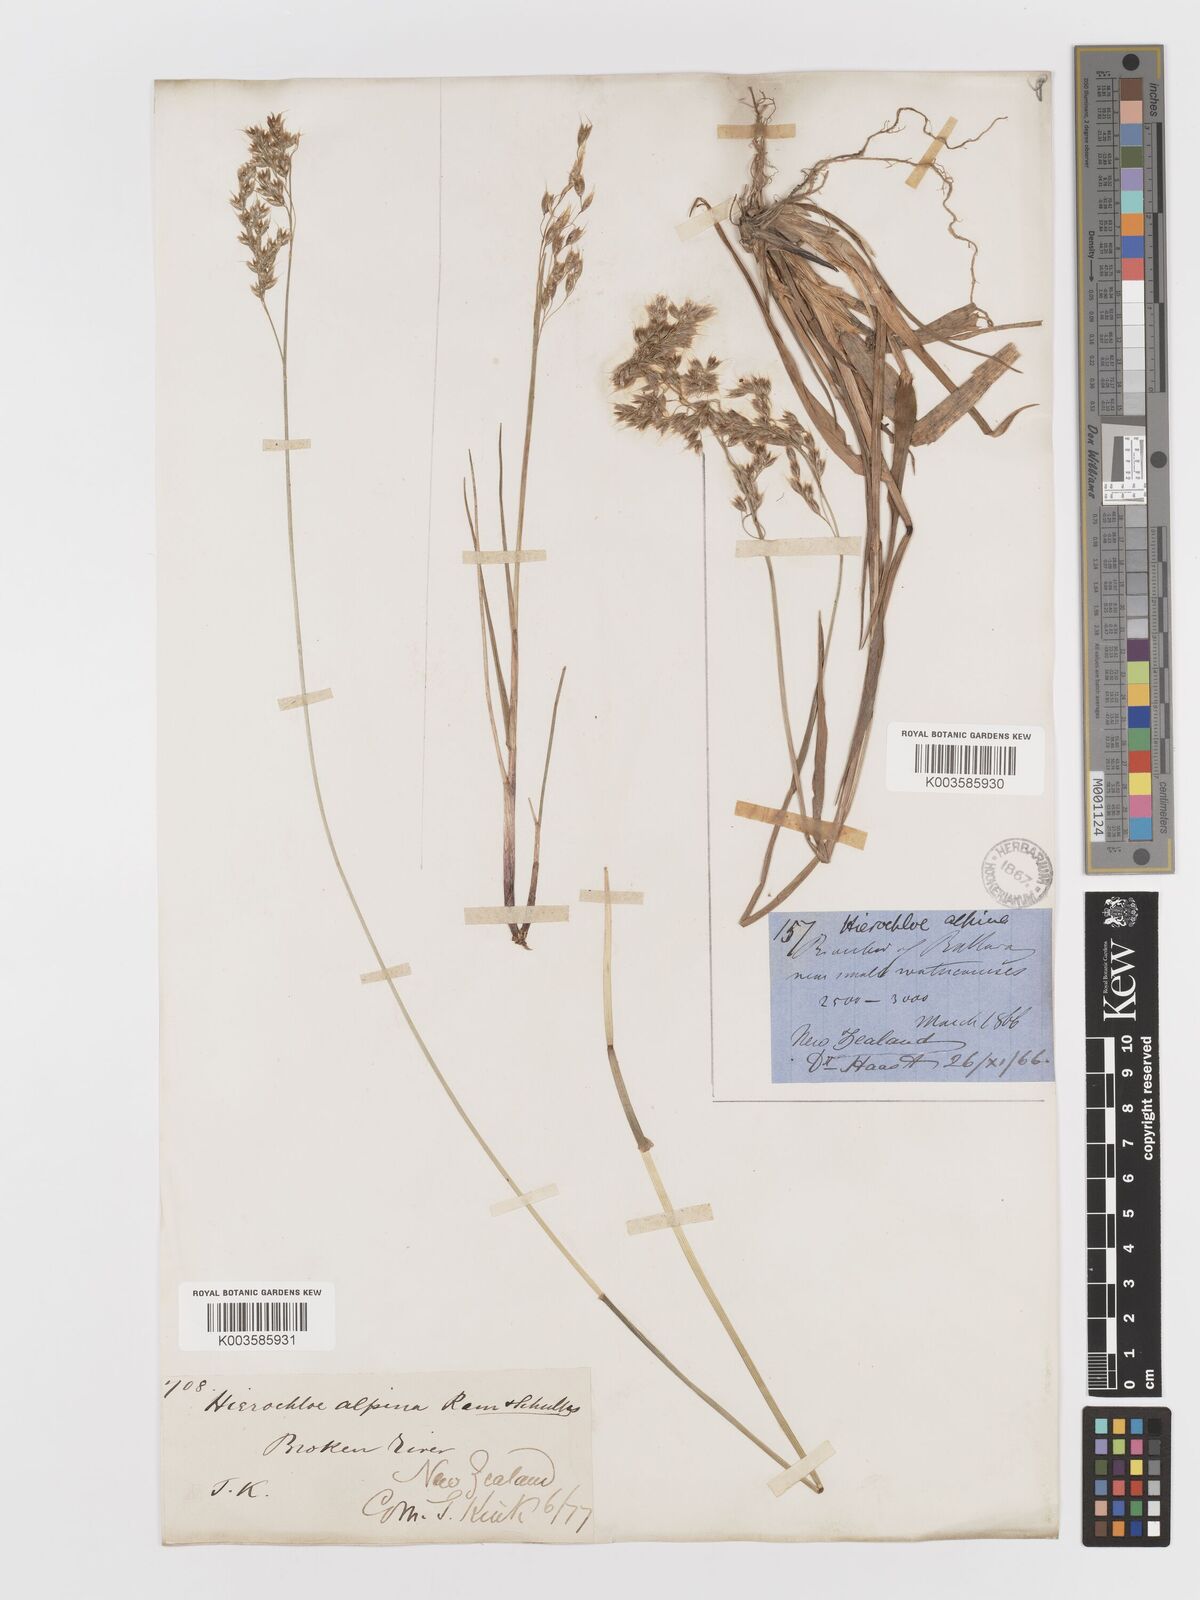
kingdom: Plantae
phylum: Tracheophyta
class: Liliopsida
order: Poales
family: Poaceae
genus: Anthoxanthum
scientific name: Anthoxanthum novae-zelandiae
